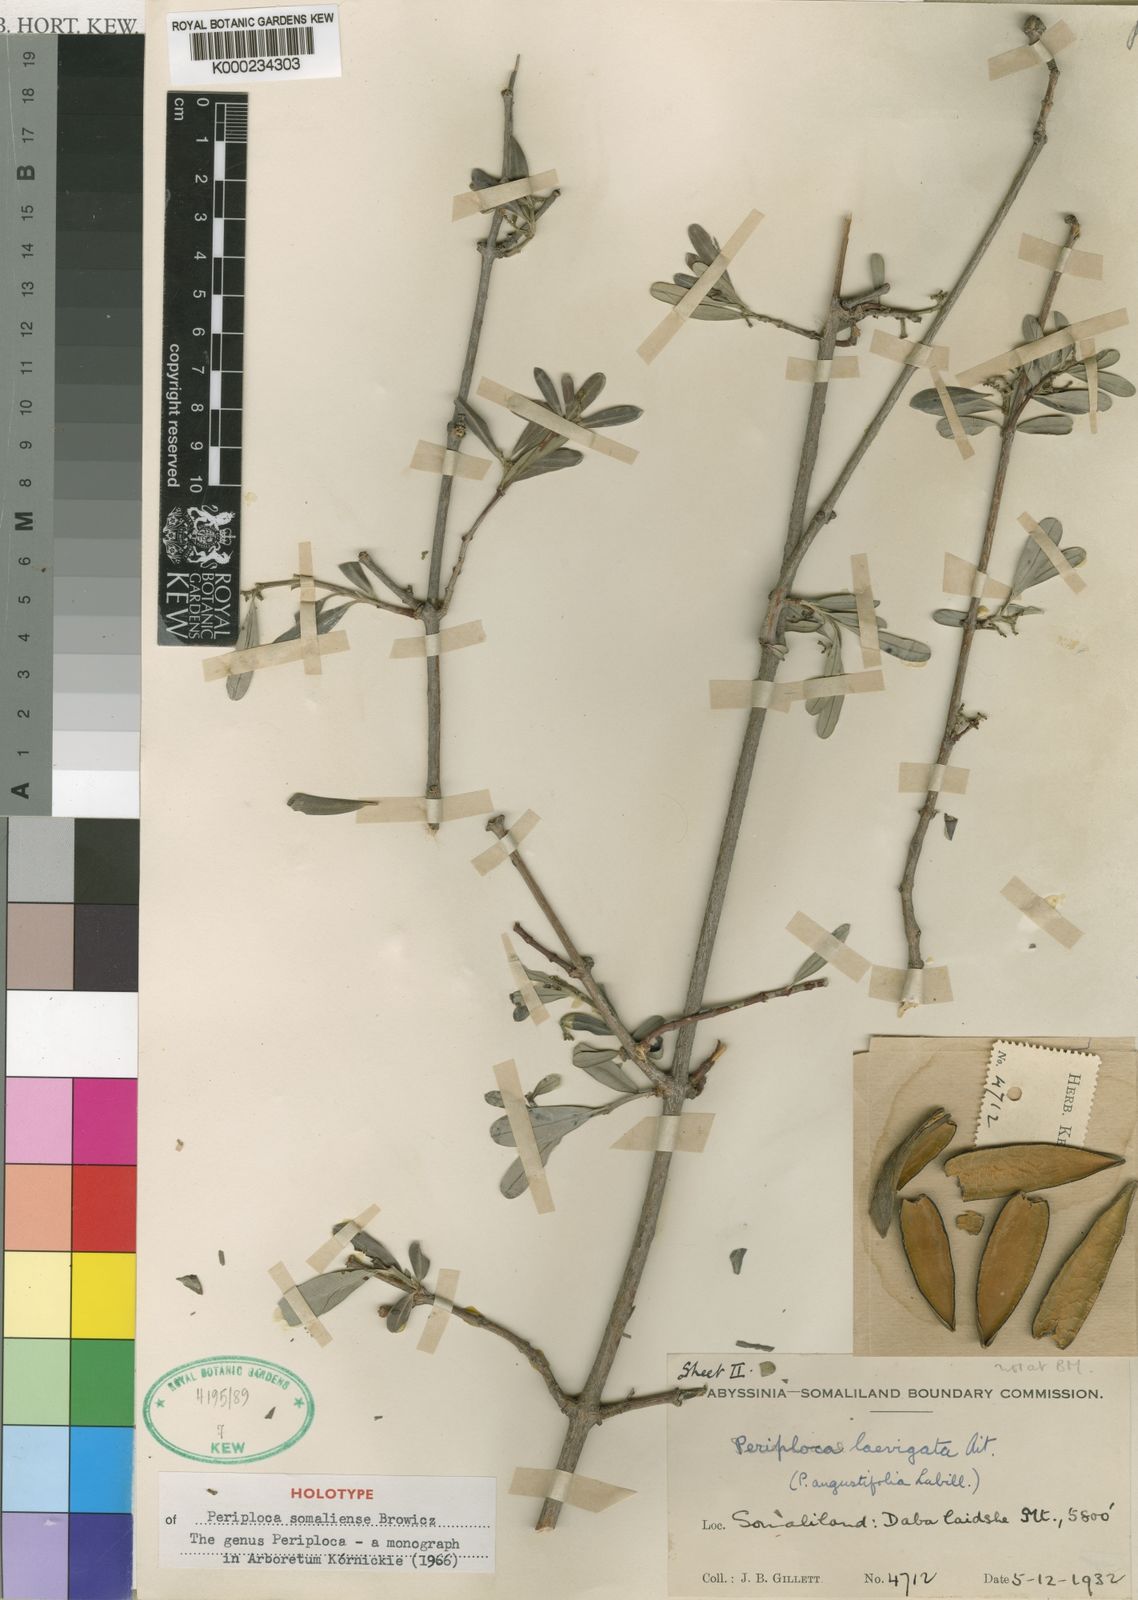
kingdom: Plantae
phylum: Tracheophyta
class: Magnoliopsida
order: Gentianales
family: Apocynaceae
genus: Periploca
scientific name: Periploca somaliensis
